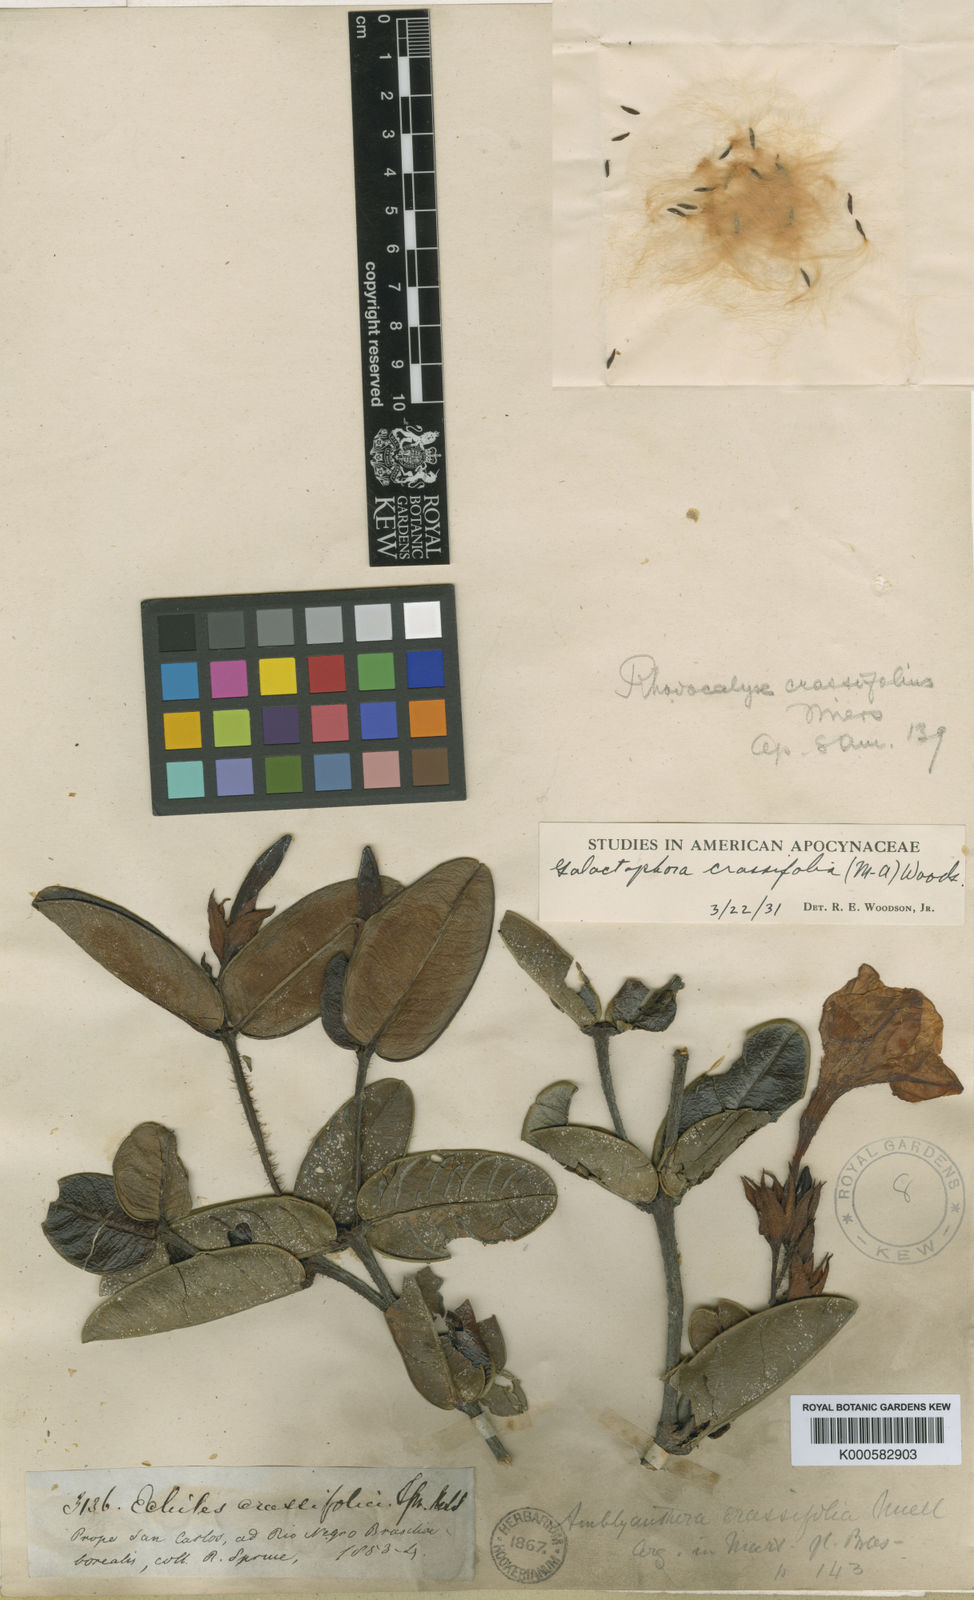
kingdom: Plantae
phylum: Tracheophyta
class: Magnoliopsida
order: Gentianales
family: Apocynaceae
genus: Galactophora
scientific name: Galactophora
